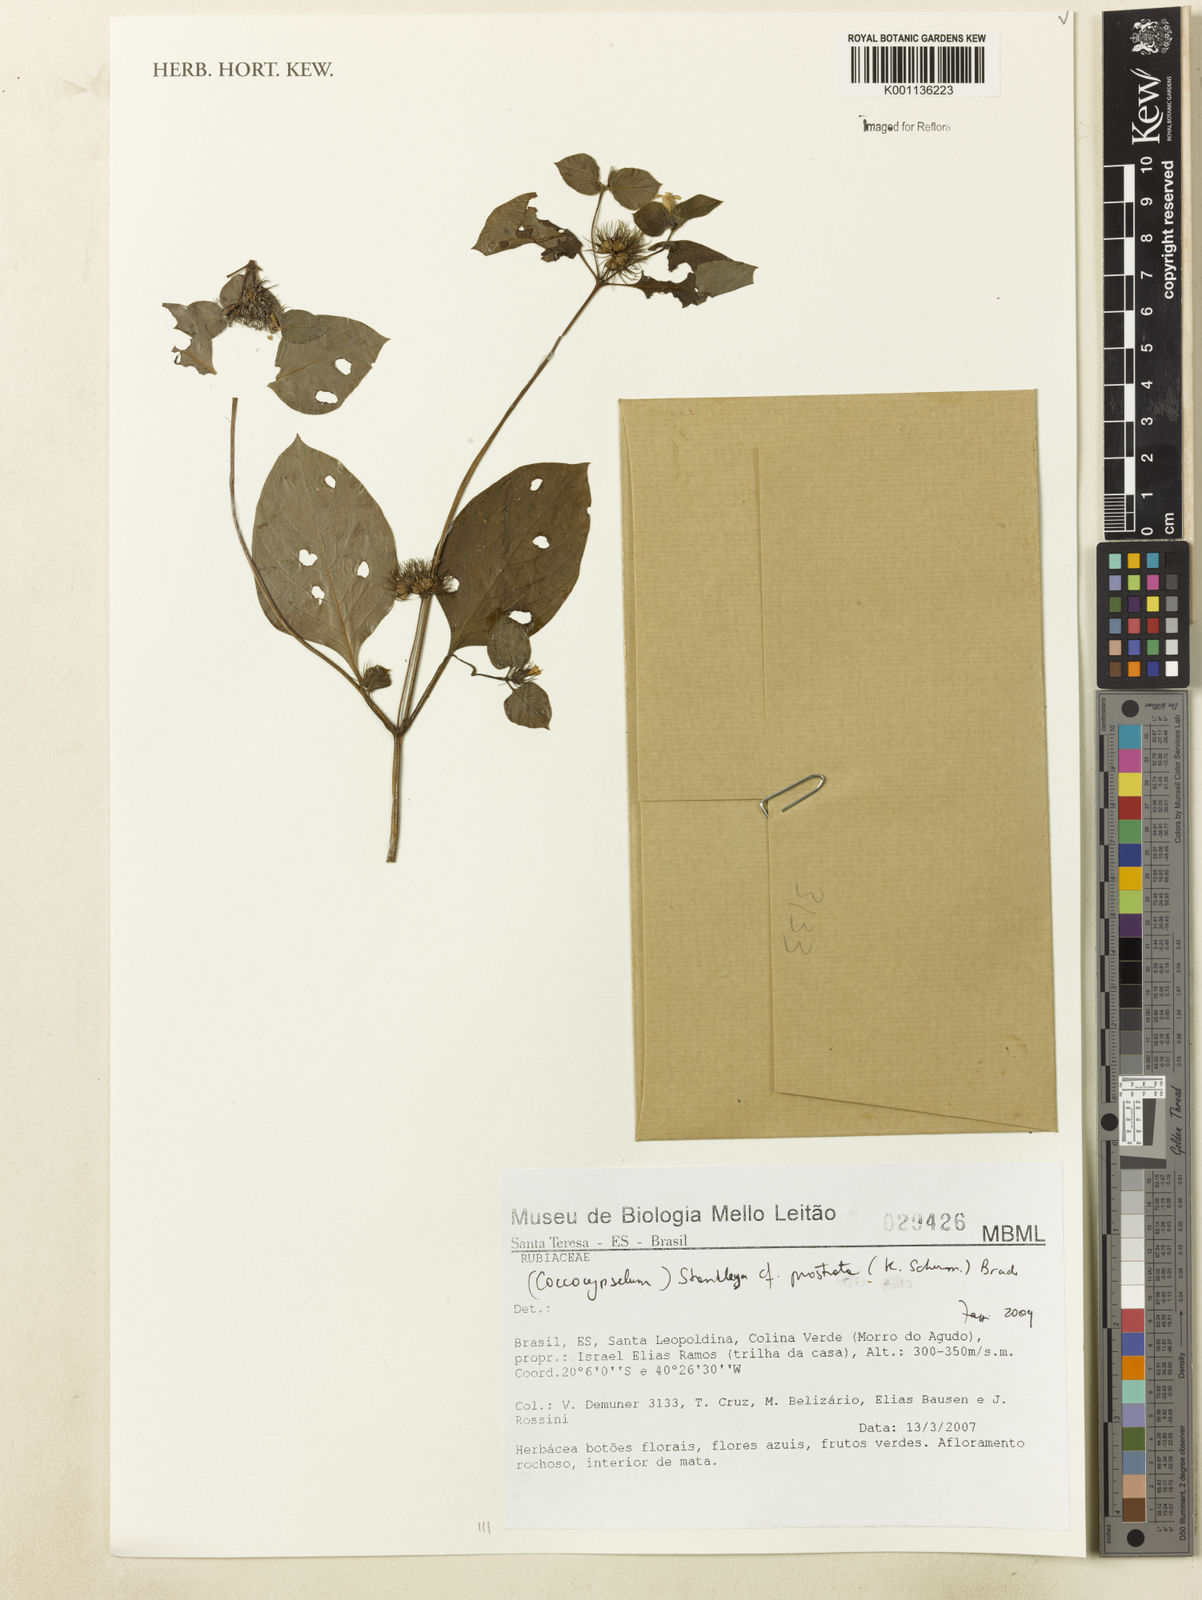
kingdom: Plantae
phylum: Tracheophyta
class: Magnoliopsida
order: Gentianales
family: Rubiaceae
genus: Standleya
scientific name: Standleya prostrata
